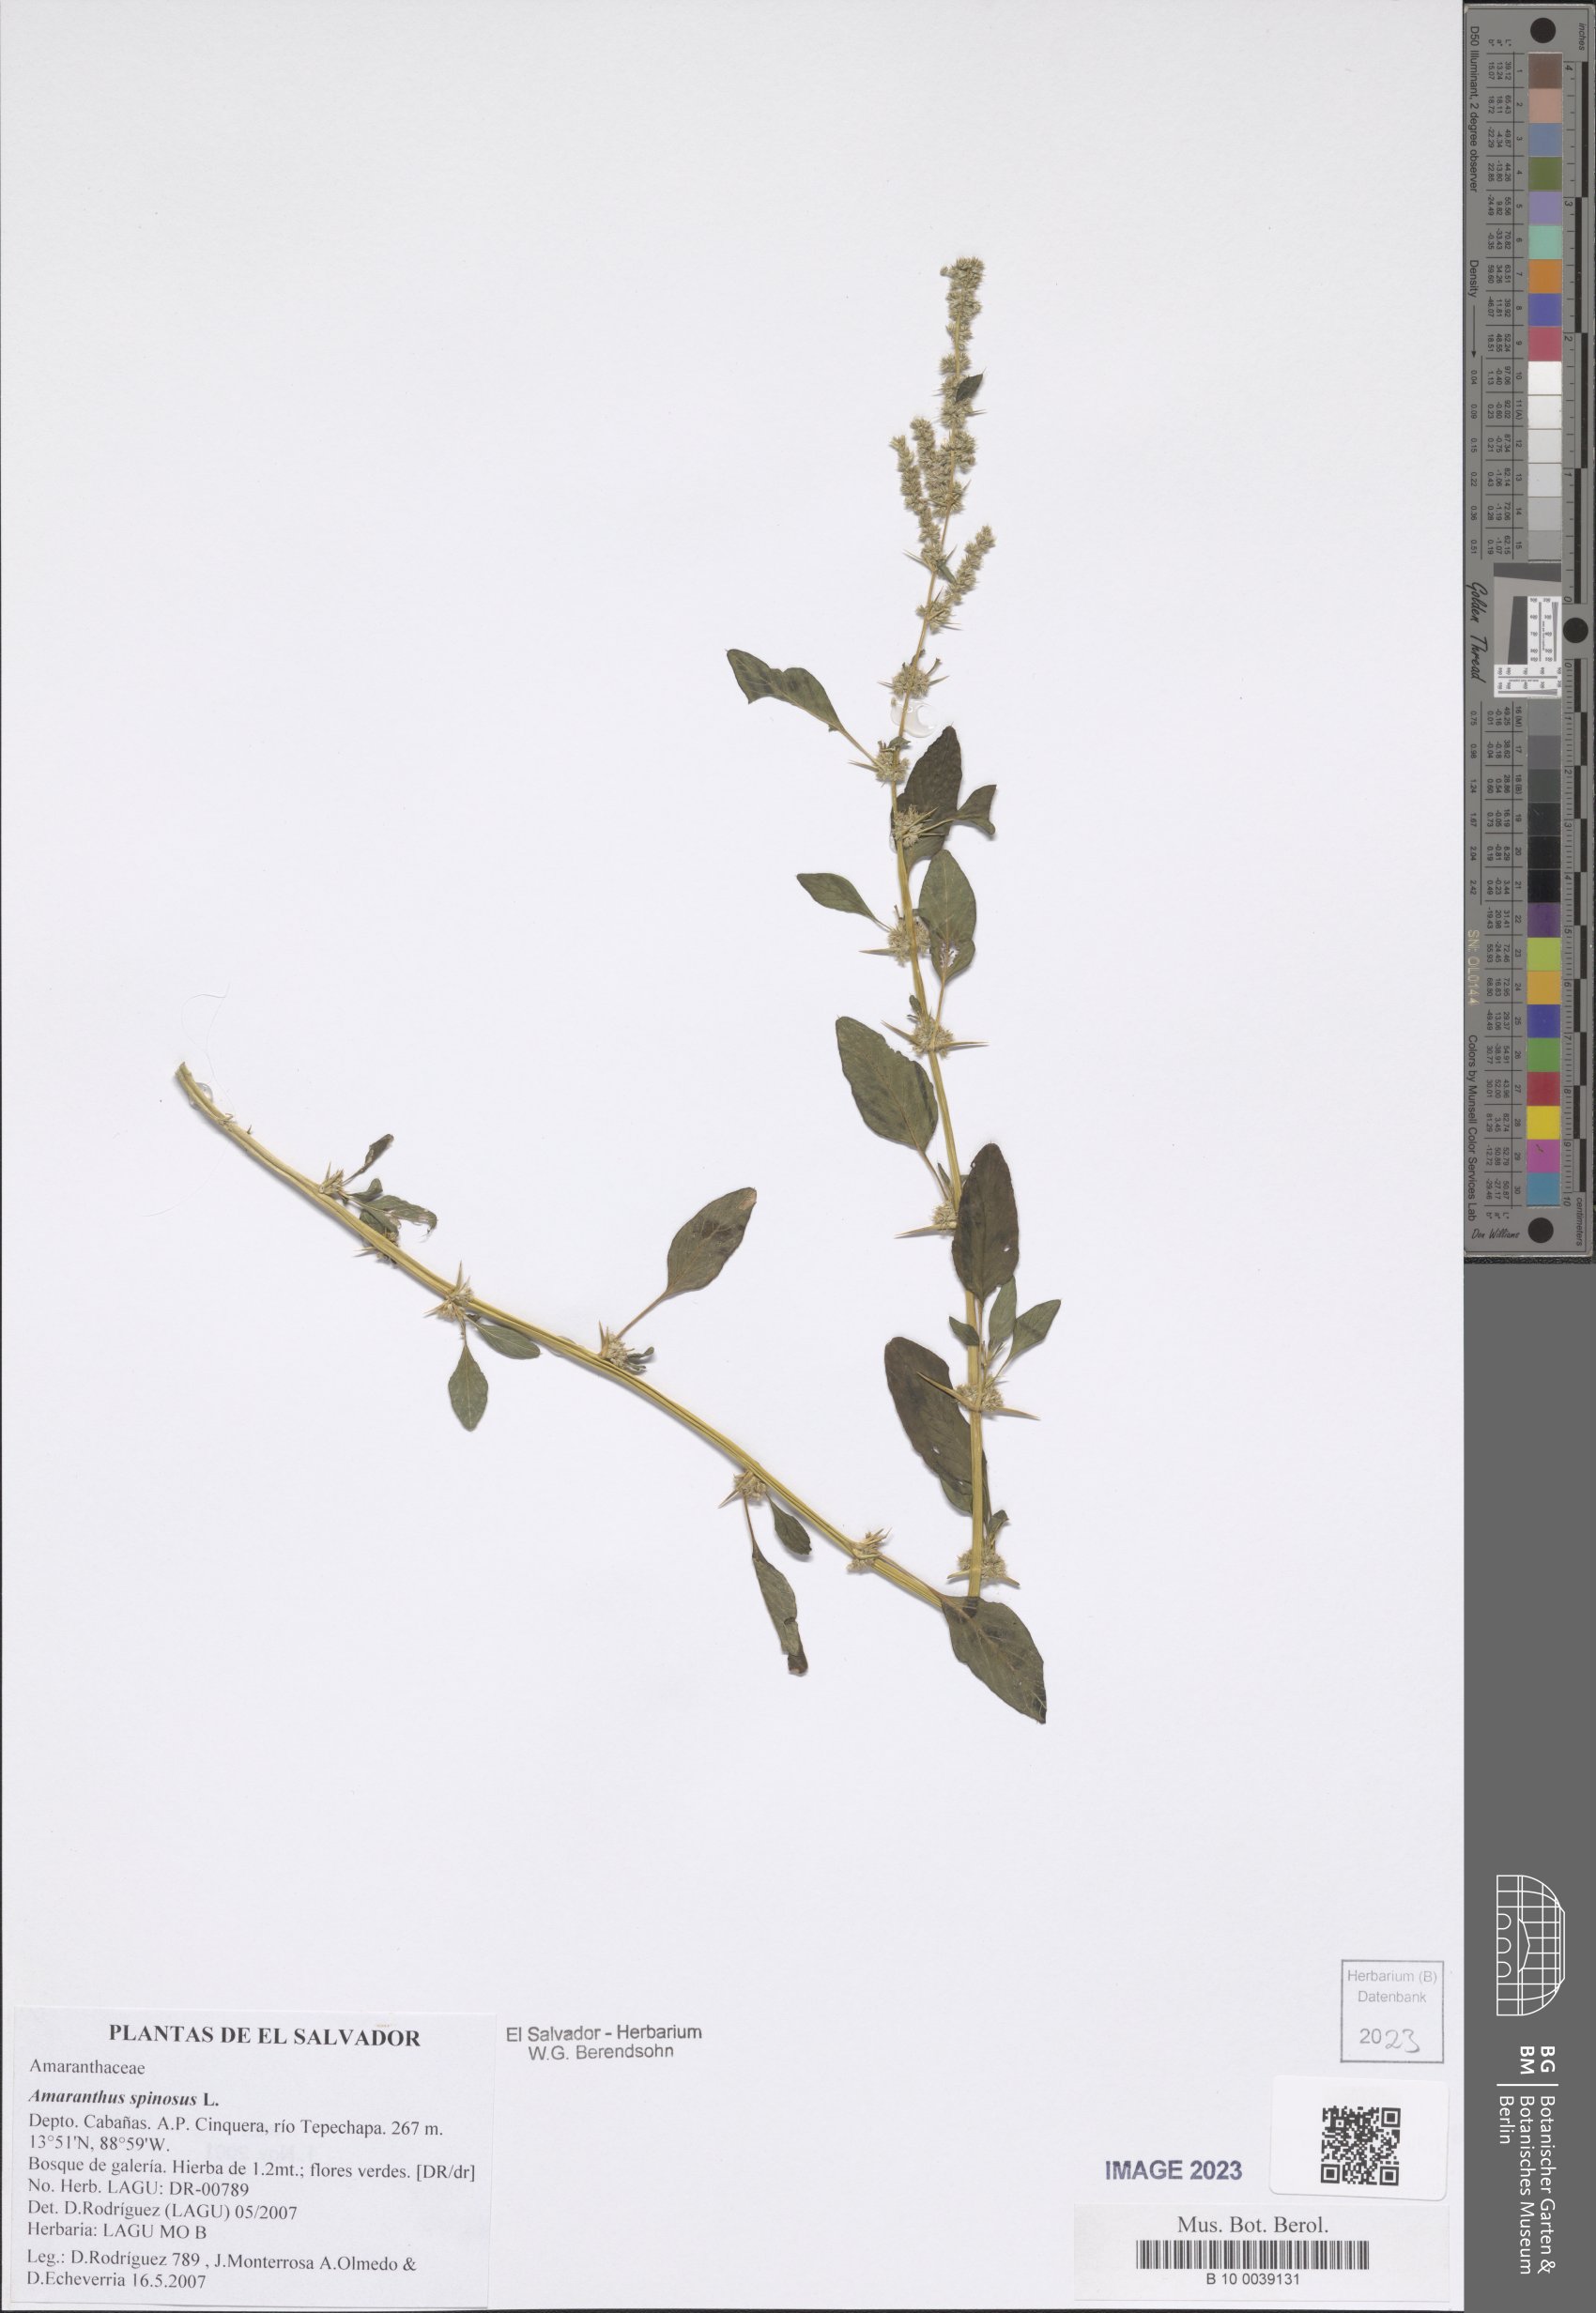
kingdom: Plantae
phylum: Tracheophyta
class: Magnoliopsida
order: Caryophyllales
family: Amaranthaceae
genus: Amaranthus
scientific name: Amaranthus spinosus
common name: Spiny amaranth
